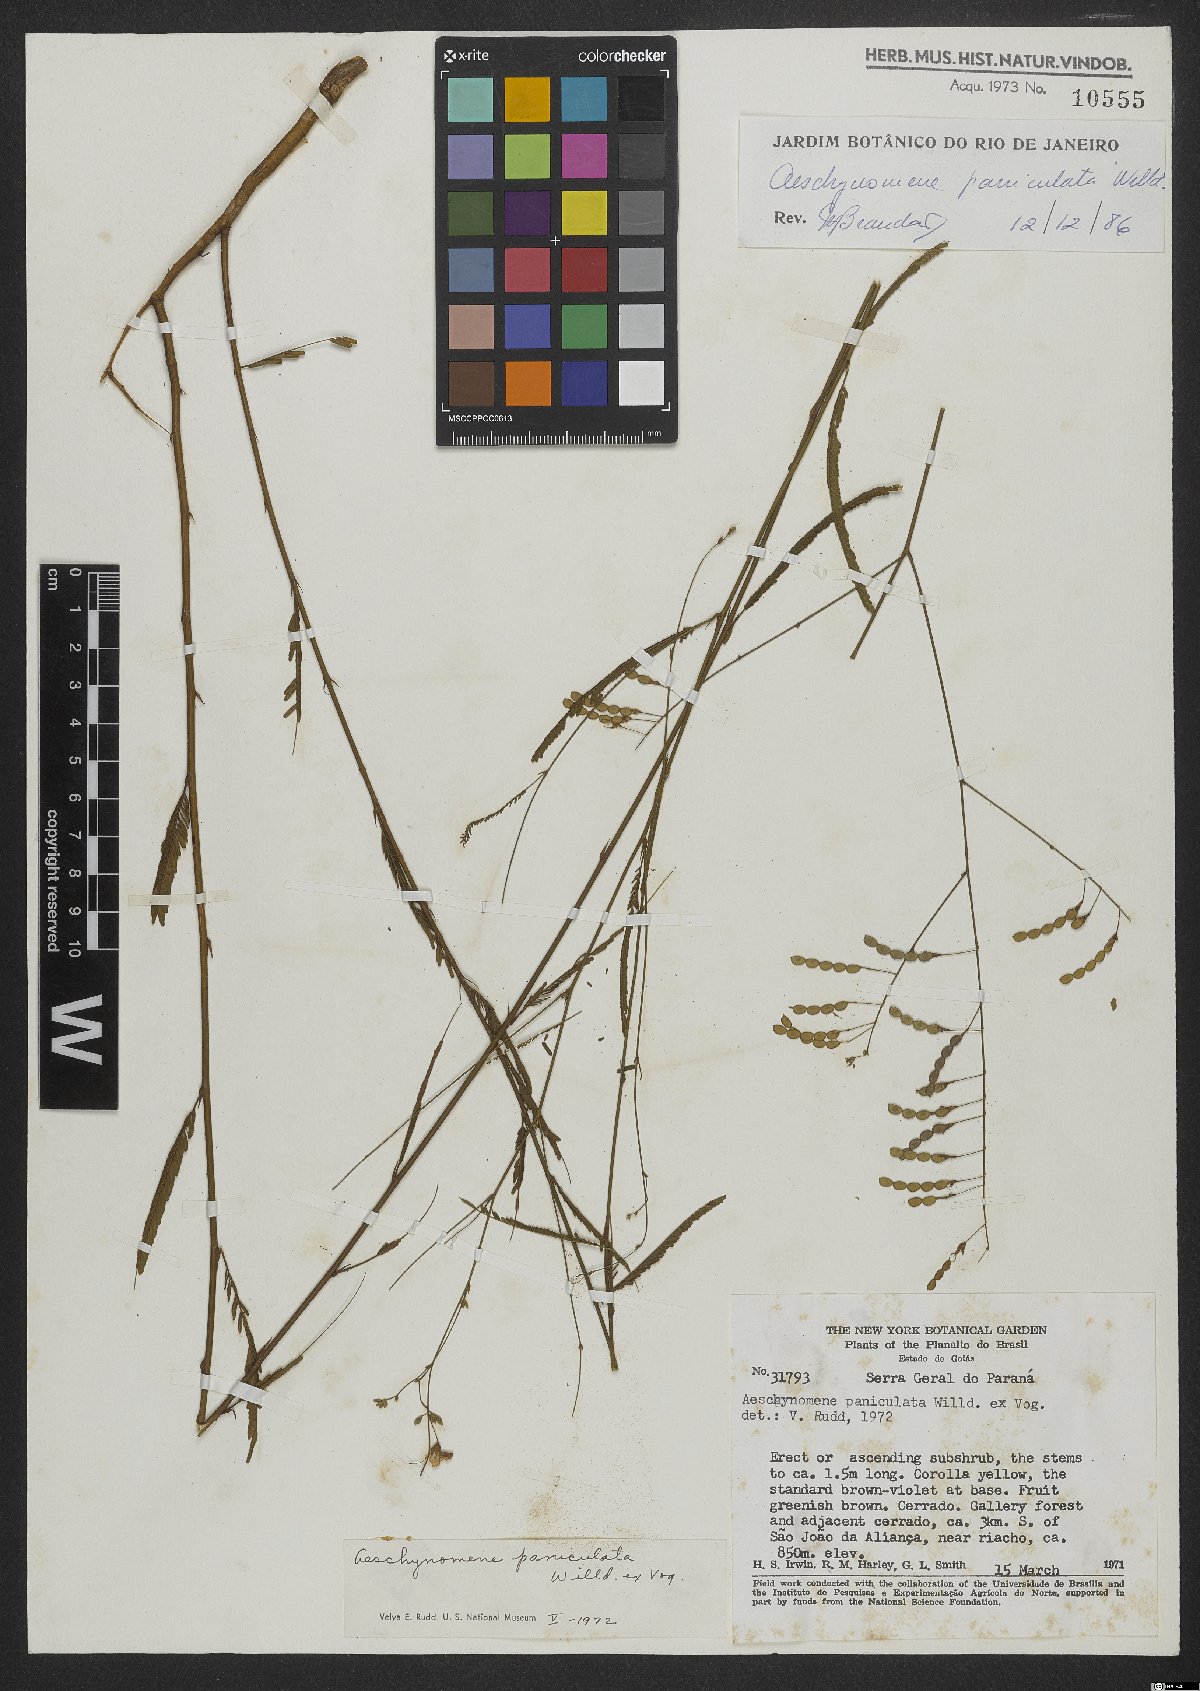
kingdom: Plantae
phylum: Tracheophyta
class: Magnoliopsida
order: Fabales
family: Fabaceae
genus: Ctenodon
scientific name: Ctenodon paniculatus
